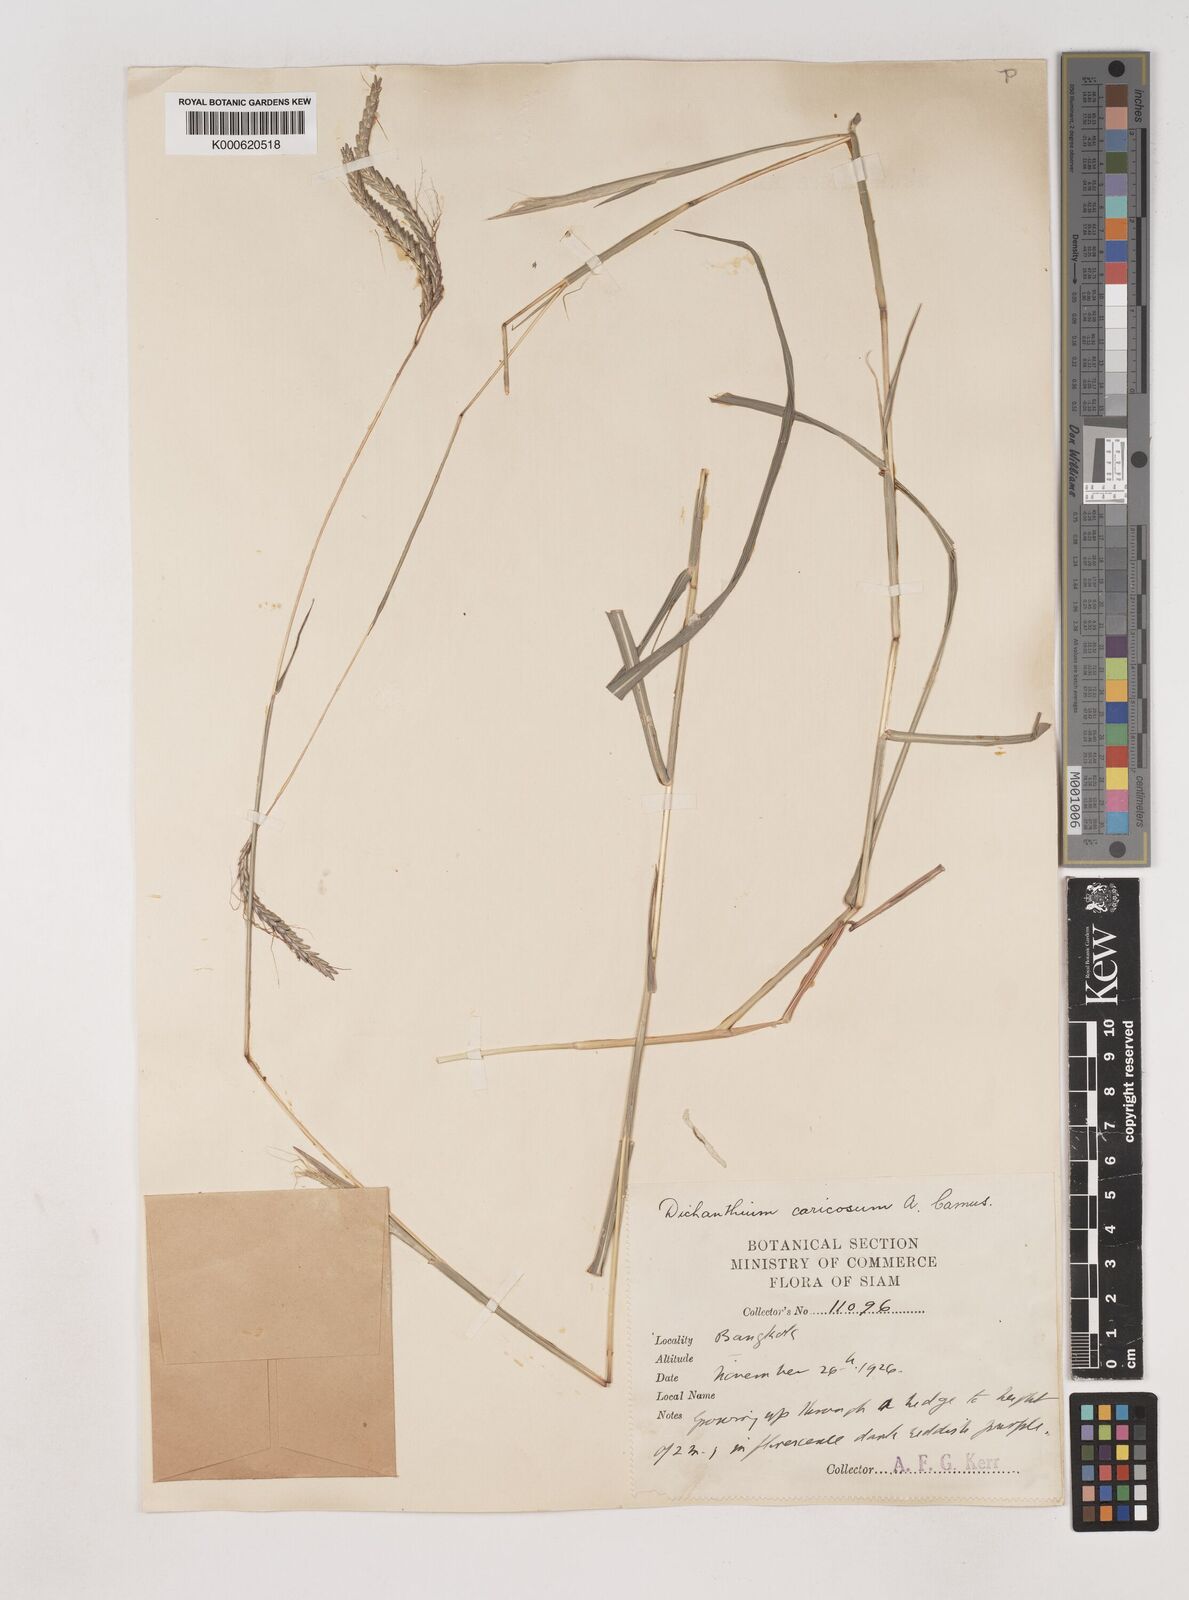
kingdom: Plantae
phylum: Tracheophyta
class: Liliopsida
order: Poales
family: Poaceae
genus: Dichanthium
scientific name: Dichanthium caricosum
